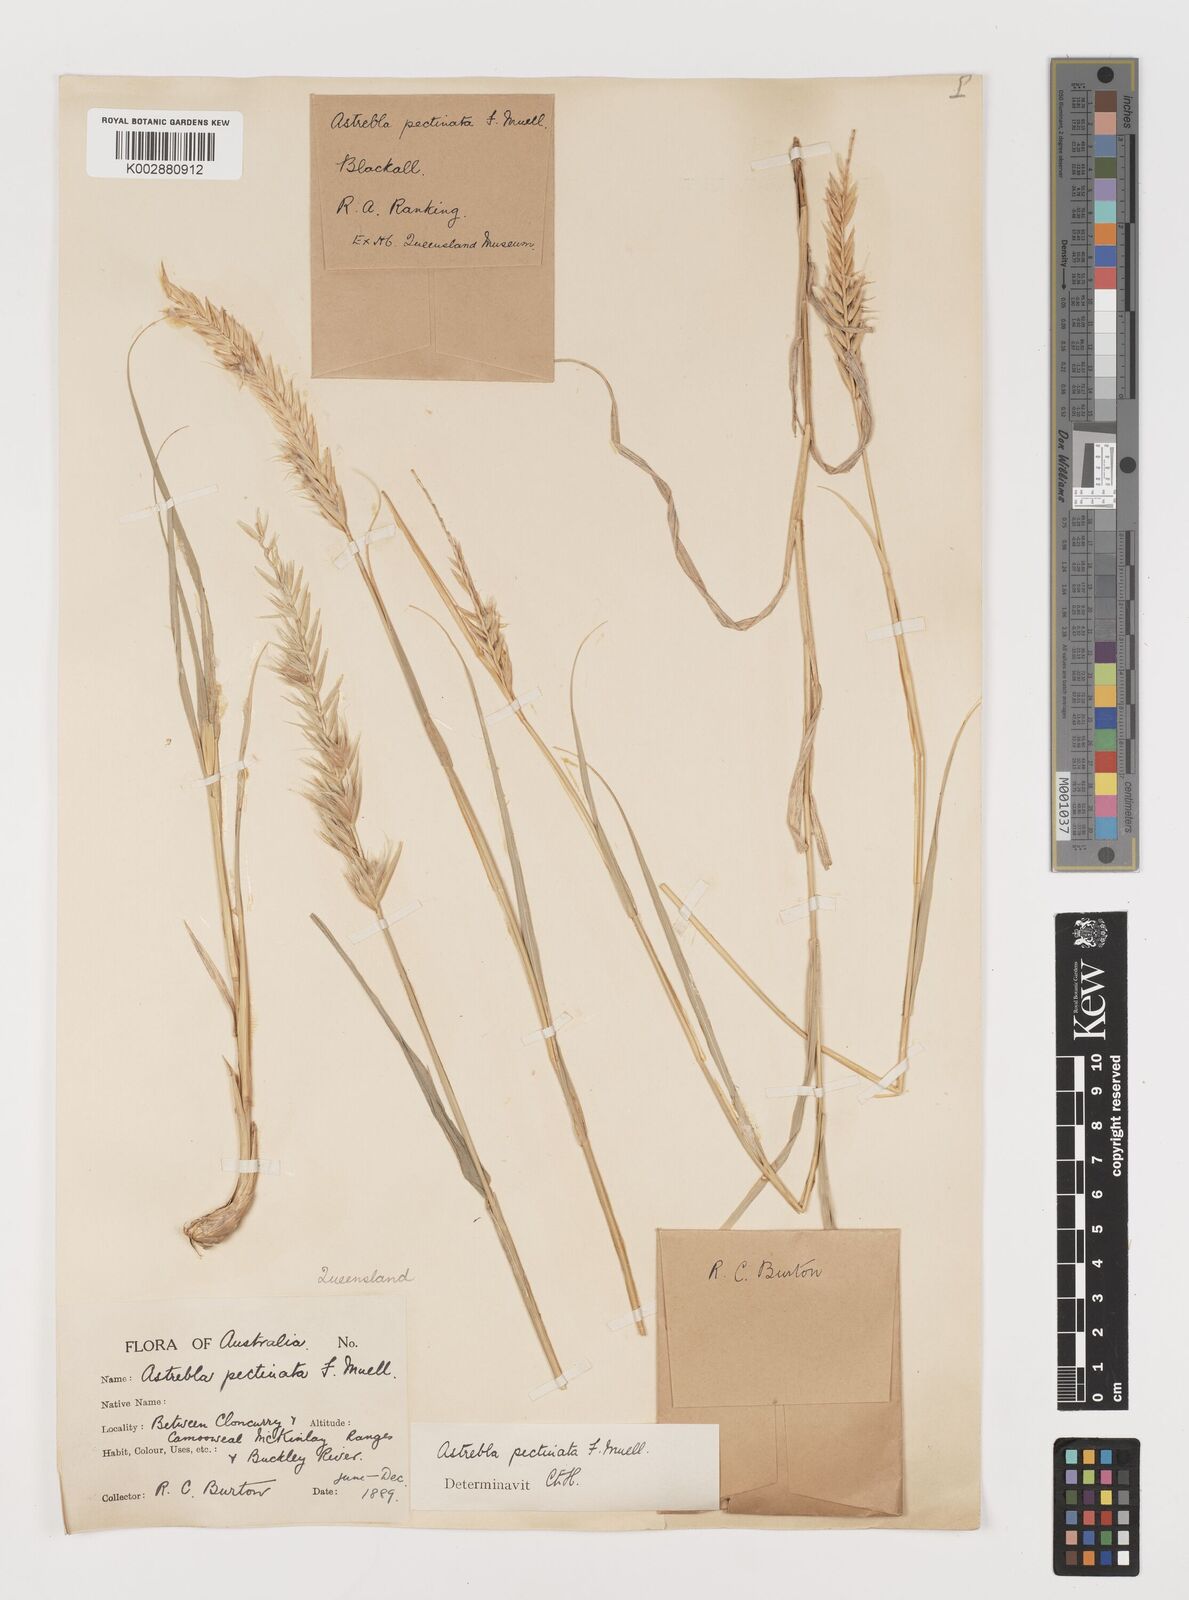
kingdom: Plantae
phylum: Tracheophyta
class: Liliopsida
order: Poales
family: Poaceae
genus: Astrebla
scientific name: Astrebla pectinata
